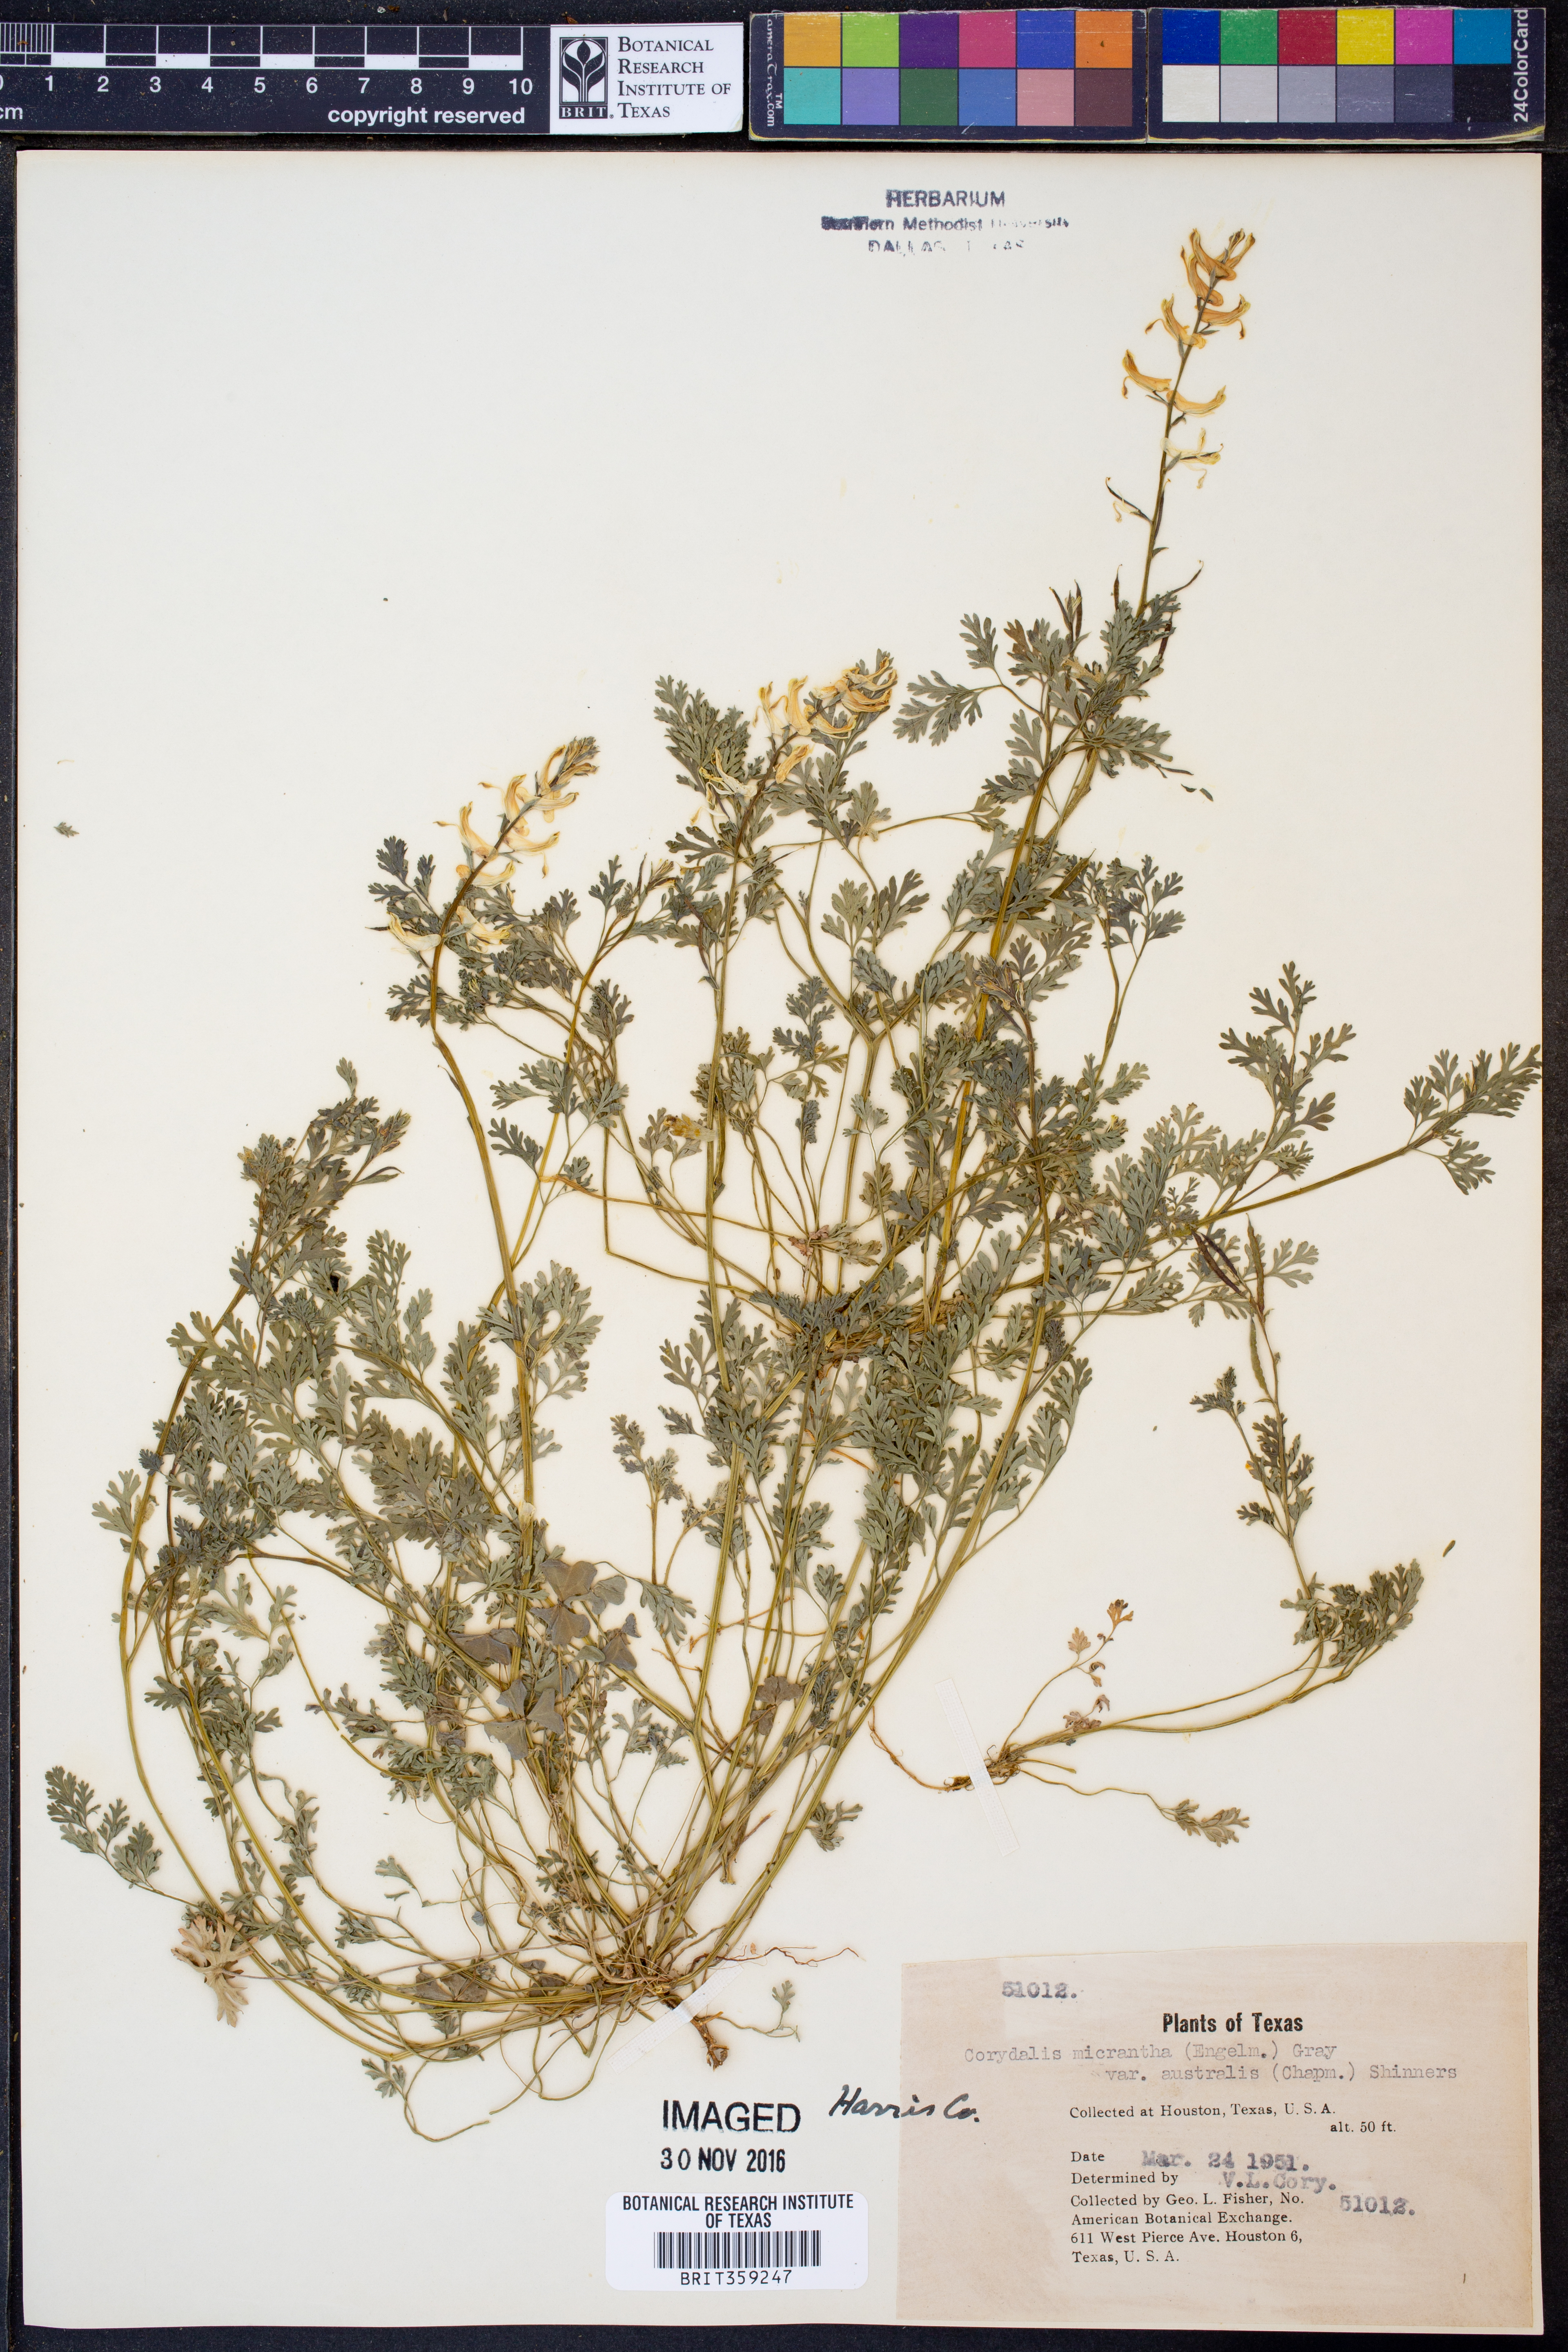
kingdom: Plantae
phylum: Tracheophyta
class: Magnoliopsida
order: Ranunculales
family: Papaveraceae
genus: Corydalis
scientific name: Corydalis micrantha
